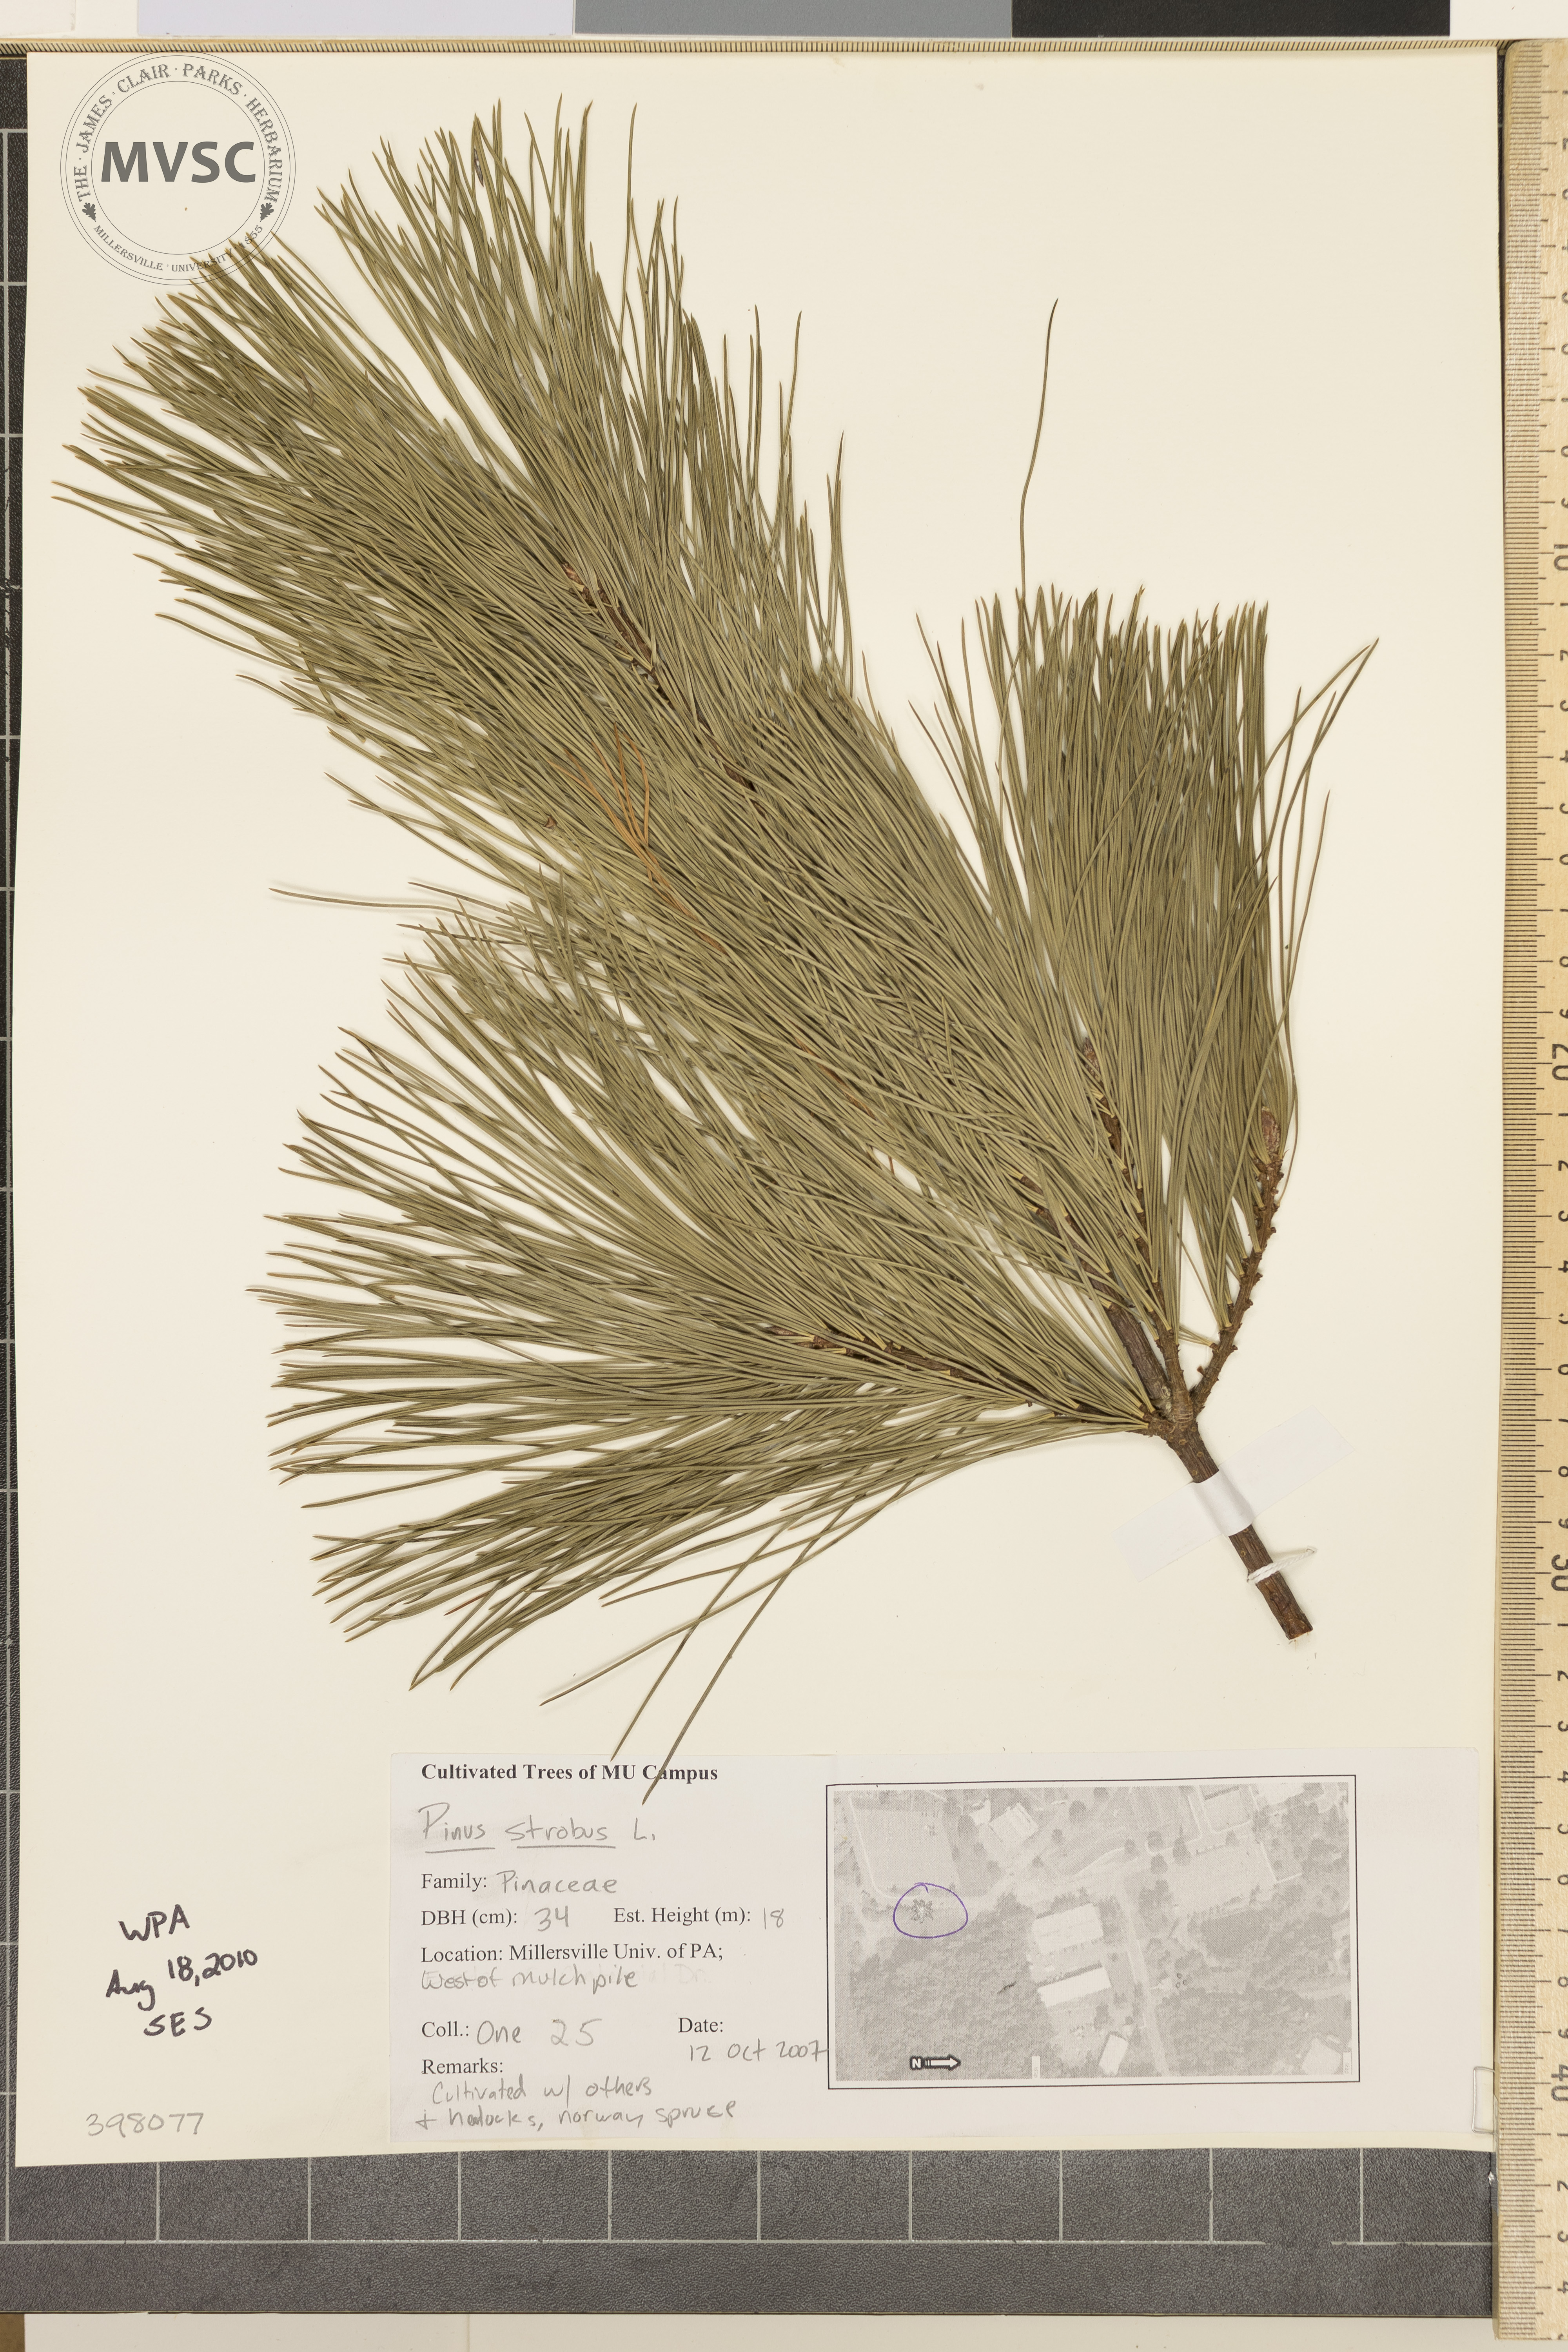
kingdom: Plantae
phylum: Tracheophyta
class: Pinopsida
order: Pinales
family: Pinaceae
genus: Pinus
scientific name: Pinus strobus
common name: Eastern white pine
